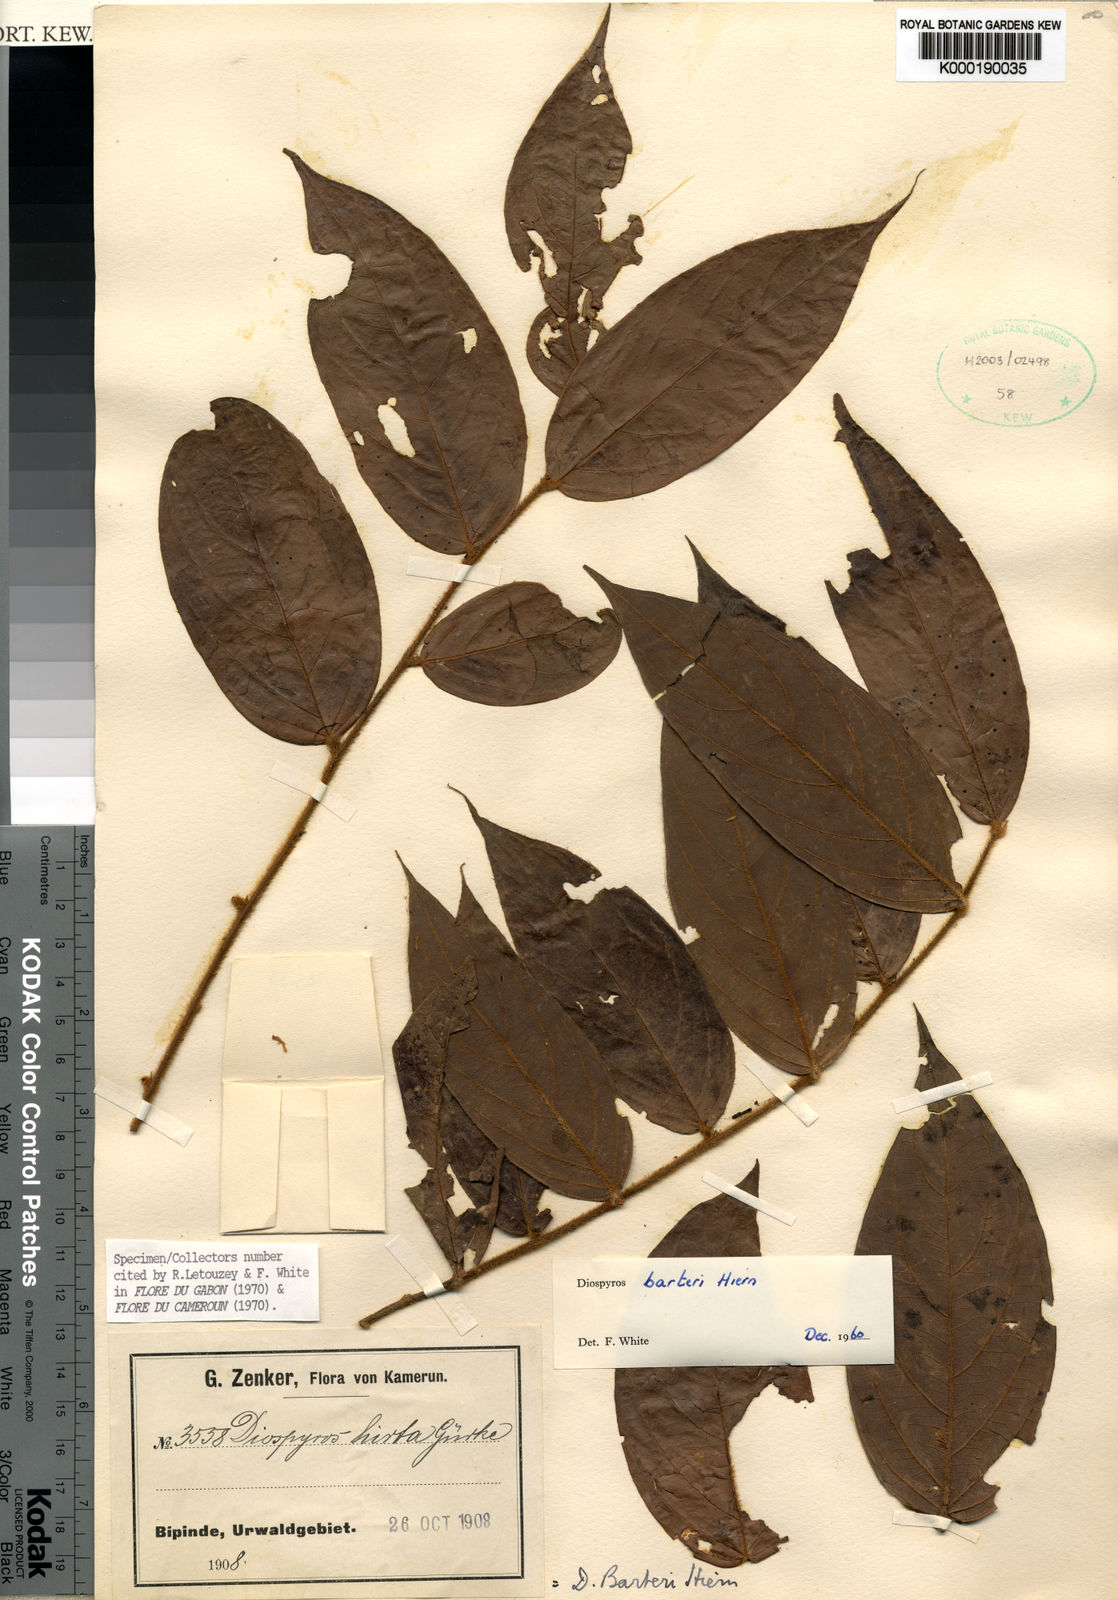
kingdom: Plantae
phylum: Tracheophyta
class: Magnoliopsida
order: Ericales
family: Ebenaceae
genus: Diospyros
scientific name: Diospyros barteri
